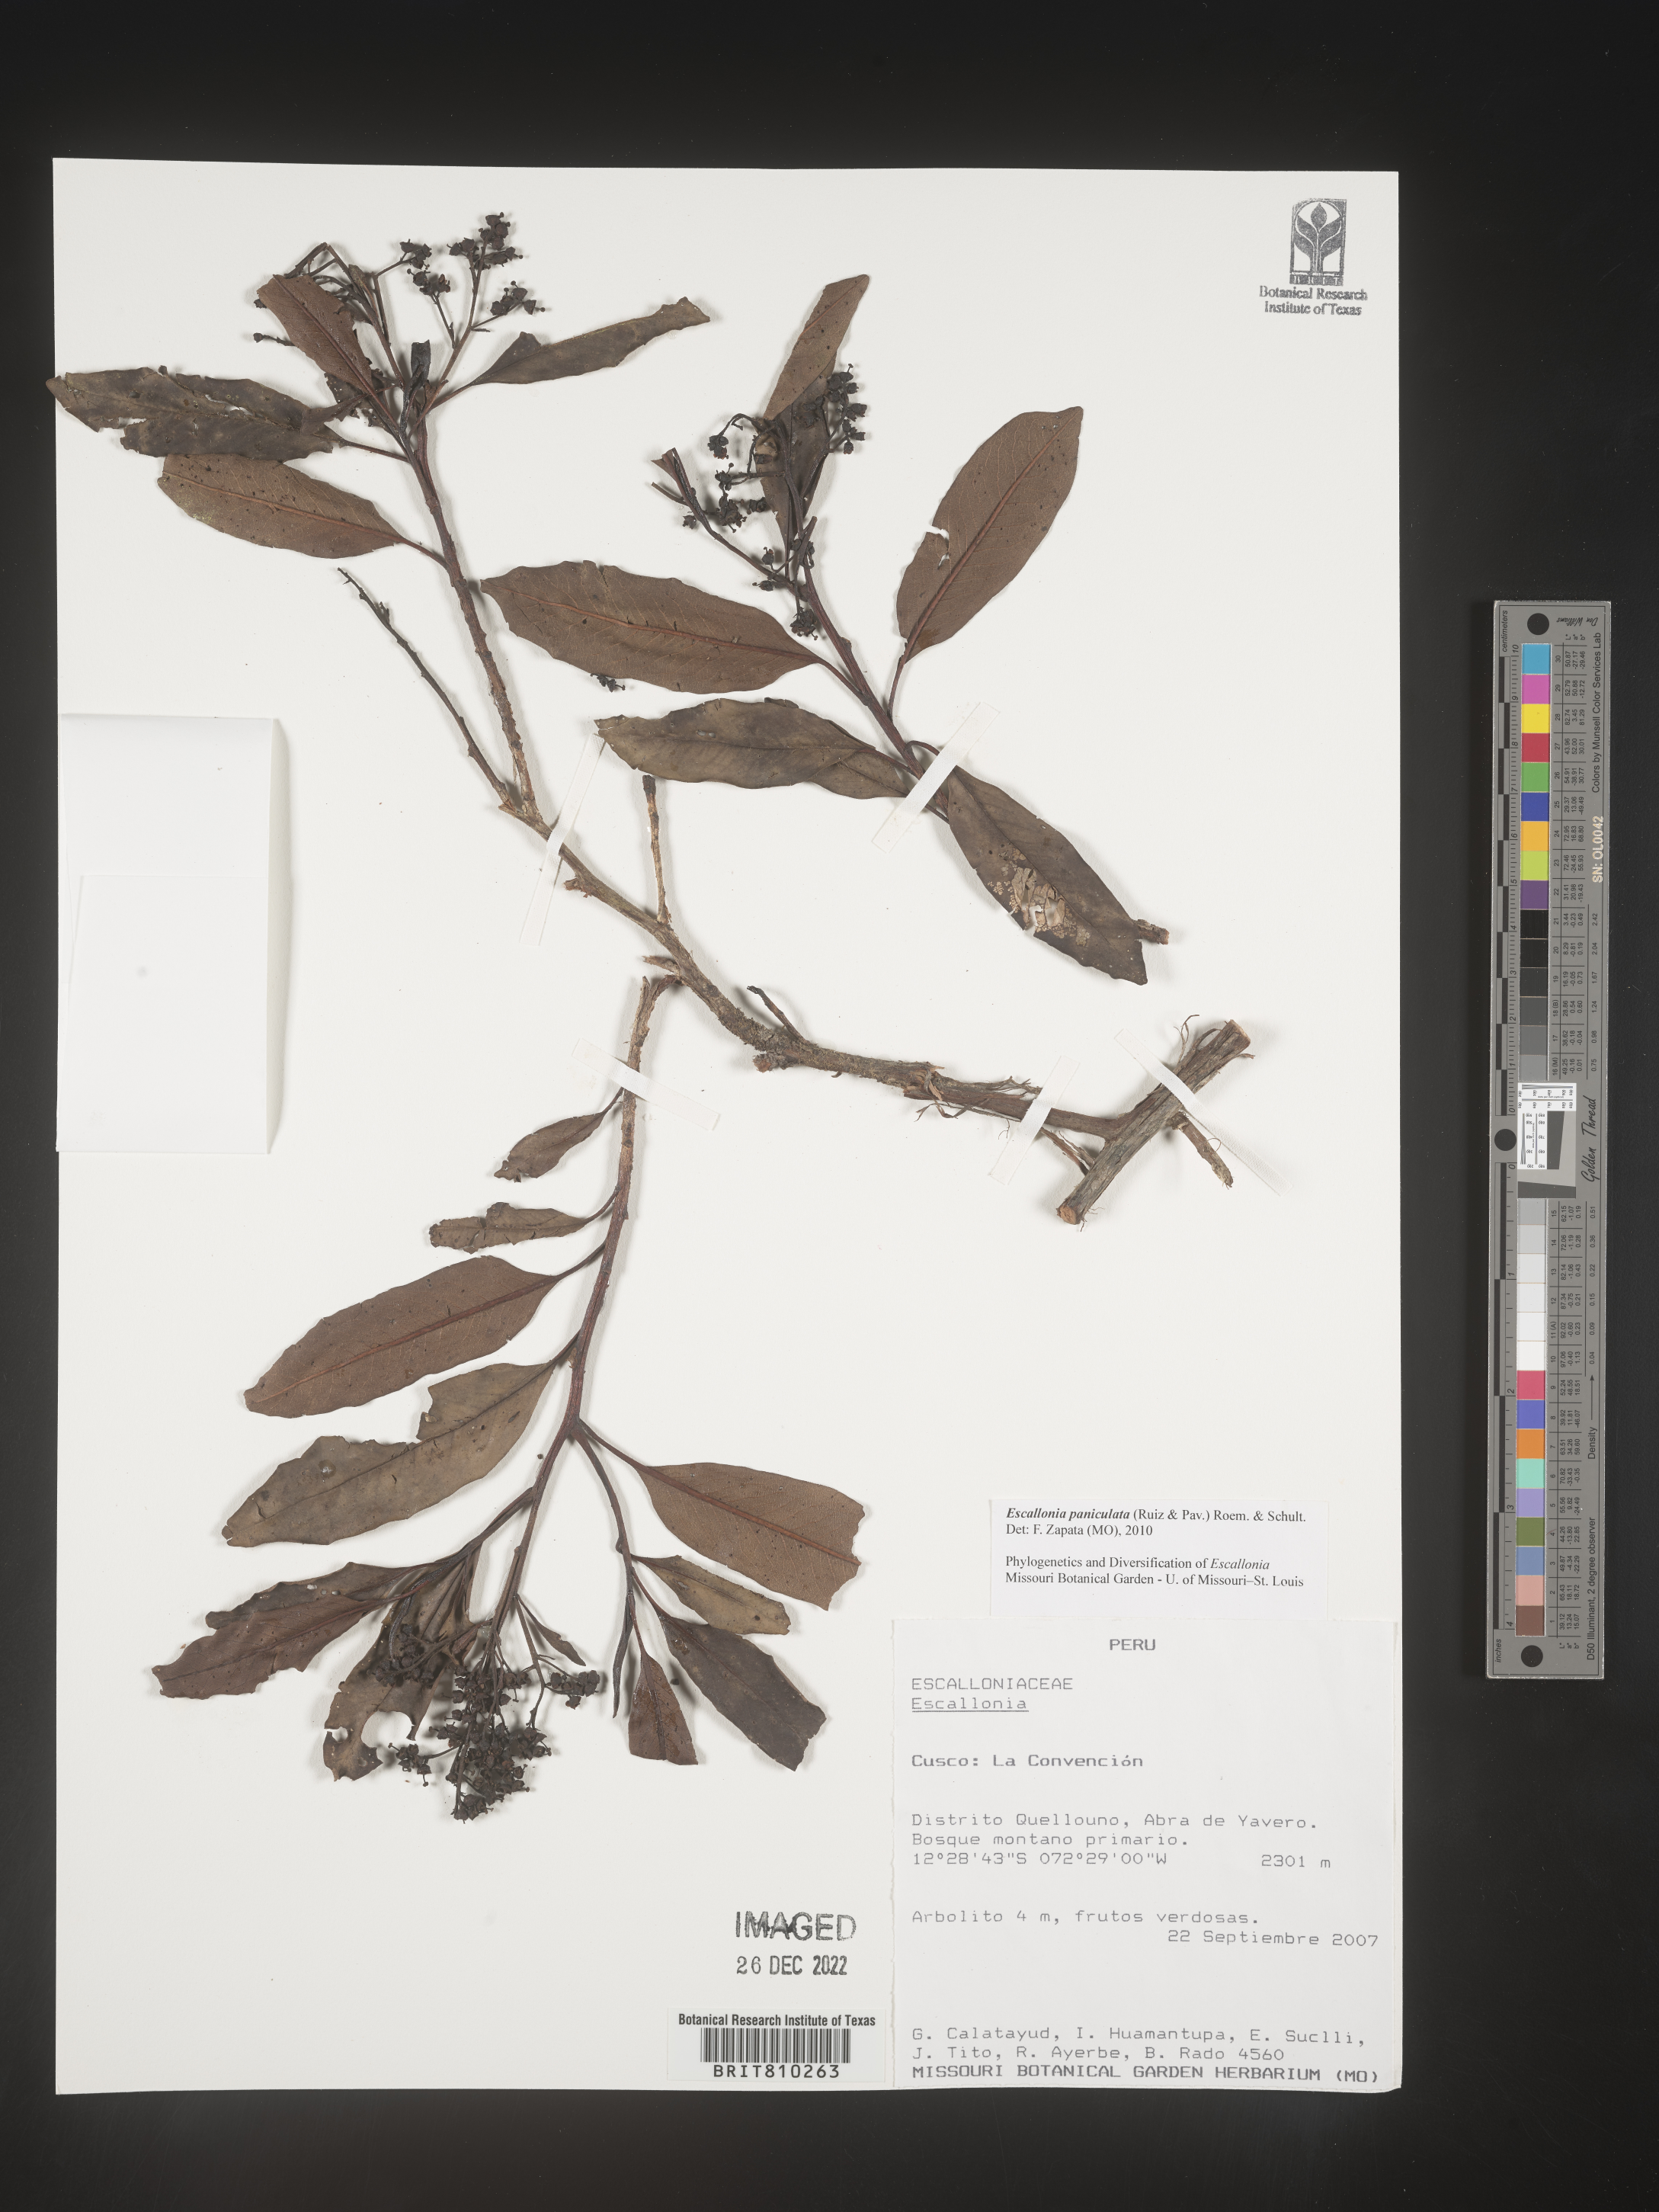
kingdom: Plantae
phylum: Tracheophyta
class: Magnoliopsida
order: Escalloniales
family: Escalloniaceae
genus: Escallonia
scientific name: Escallonia paniculata
